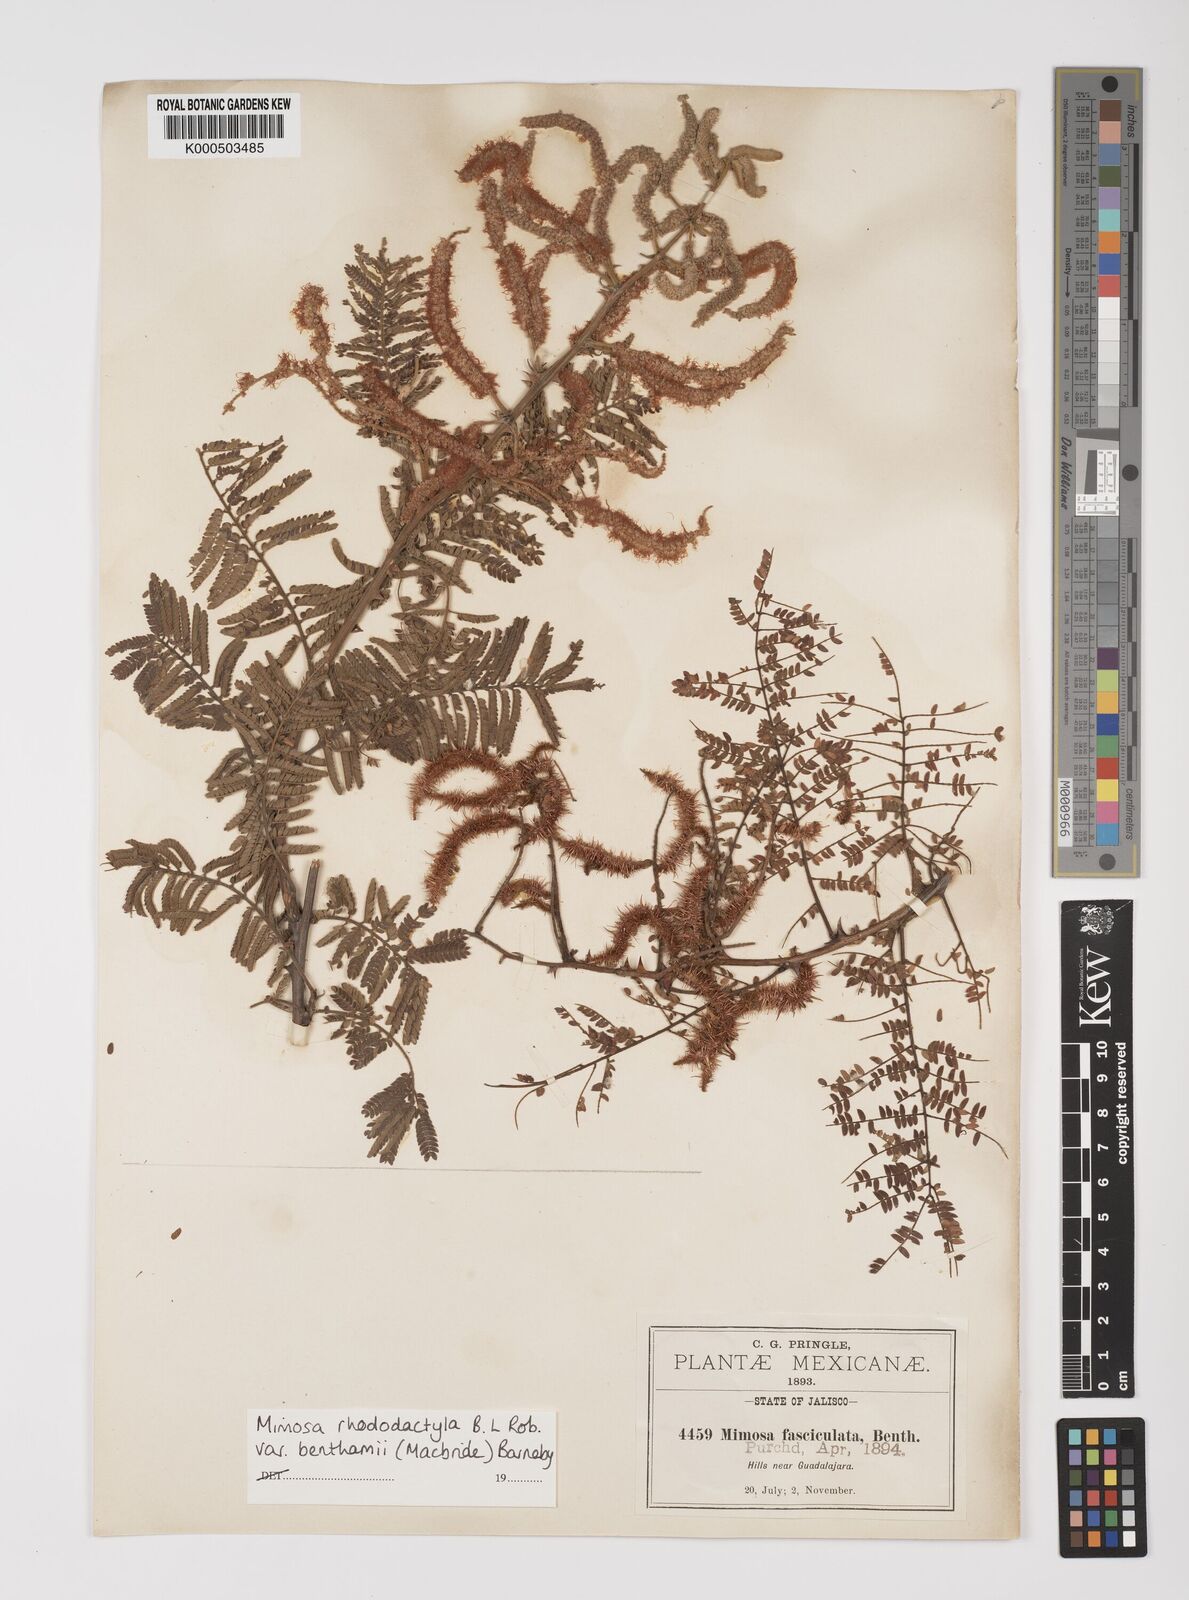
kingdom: Plantae
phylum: Tracheophyta
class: Magnoliopsida
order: Fabales
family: Fabaceae
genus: Mimosa
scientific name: Mimosa benthamii
